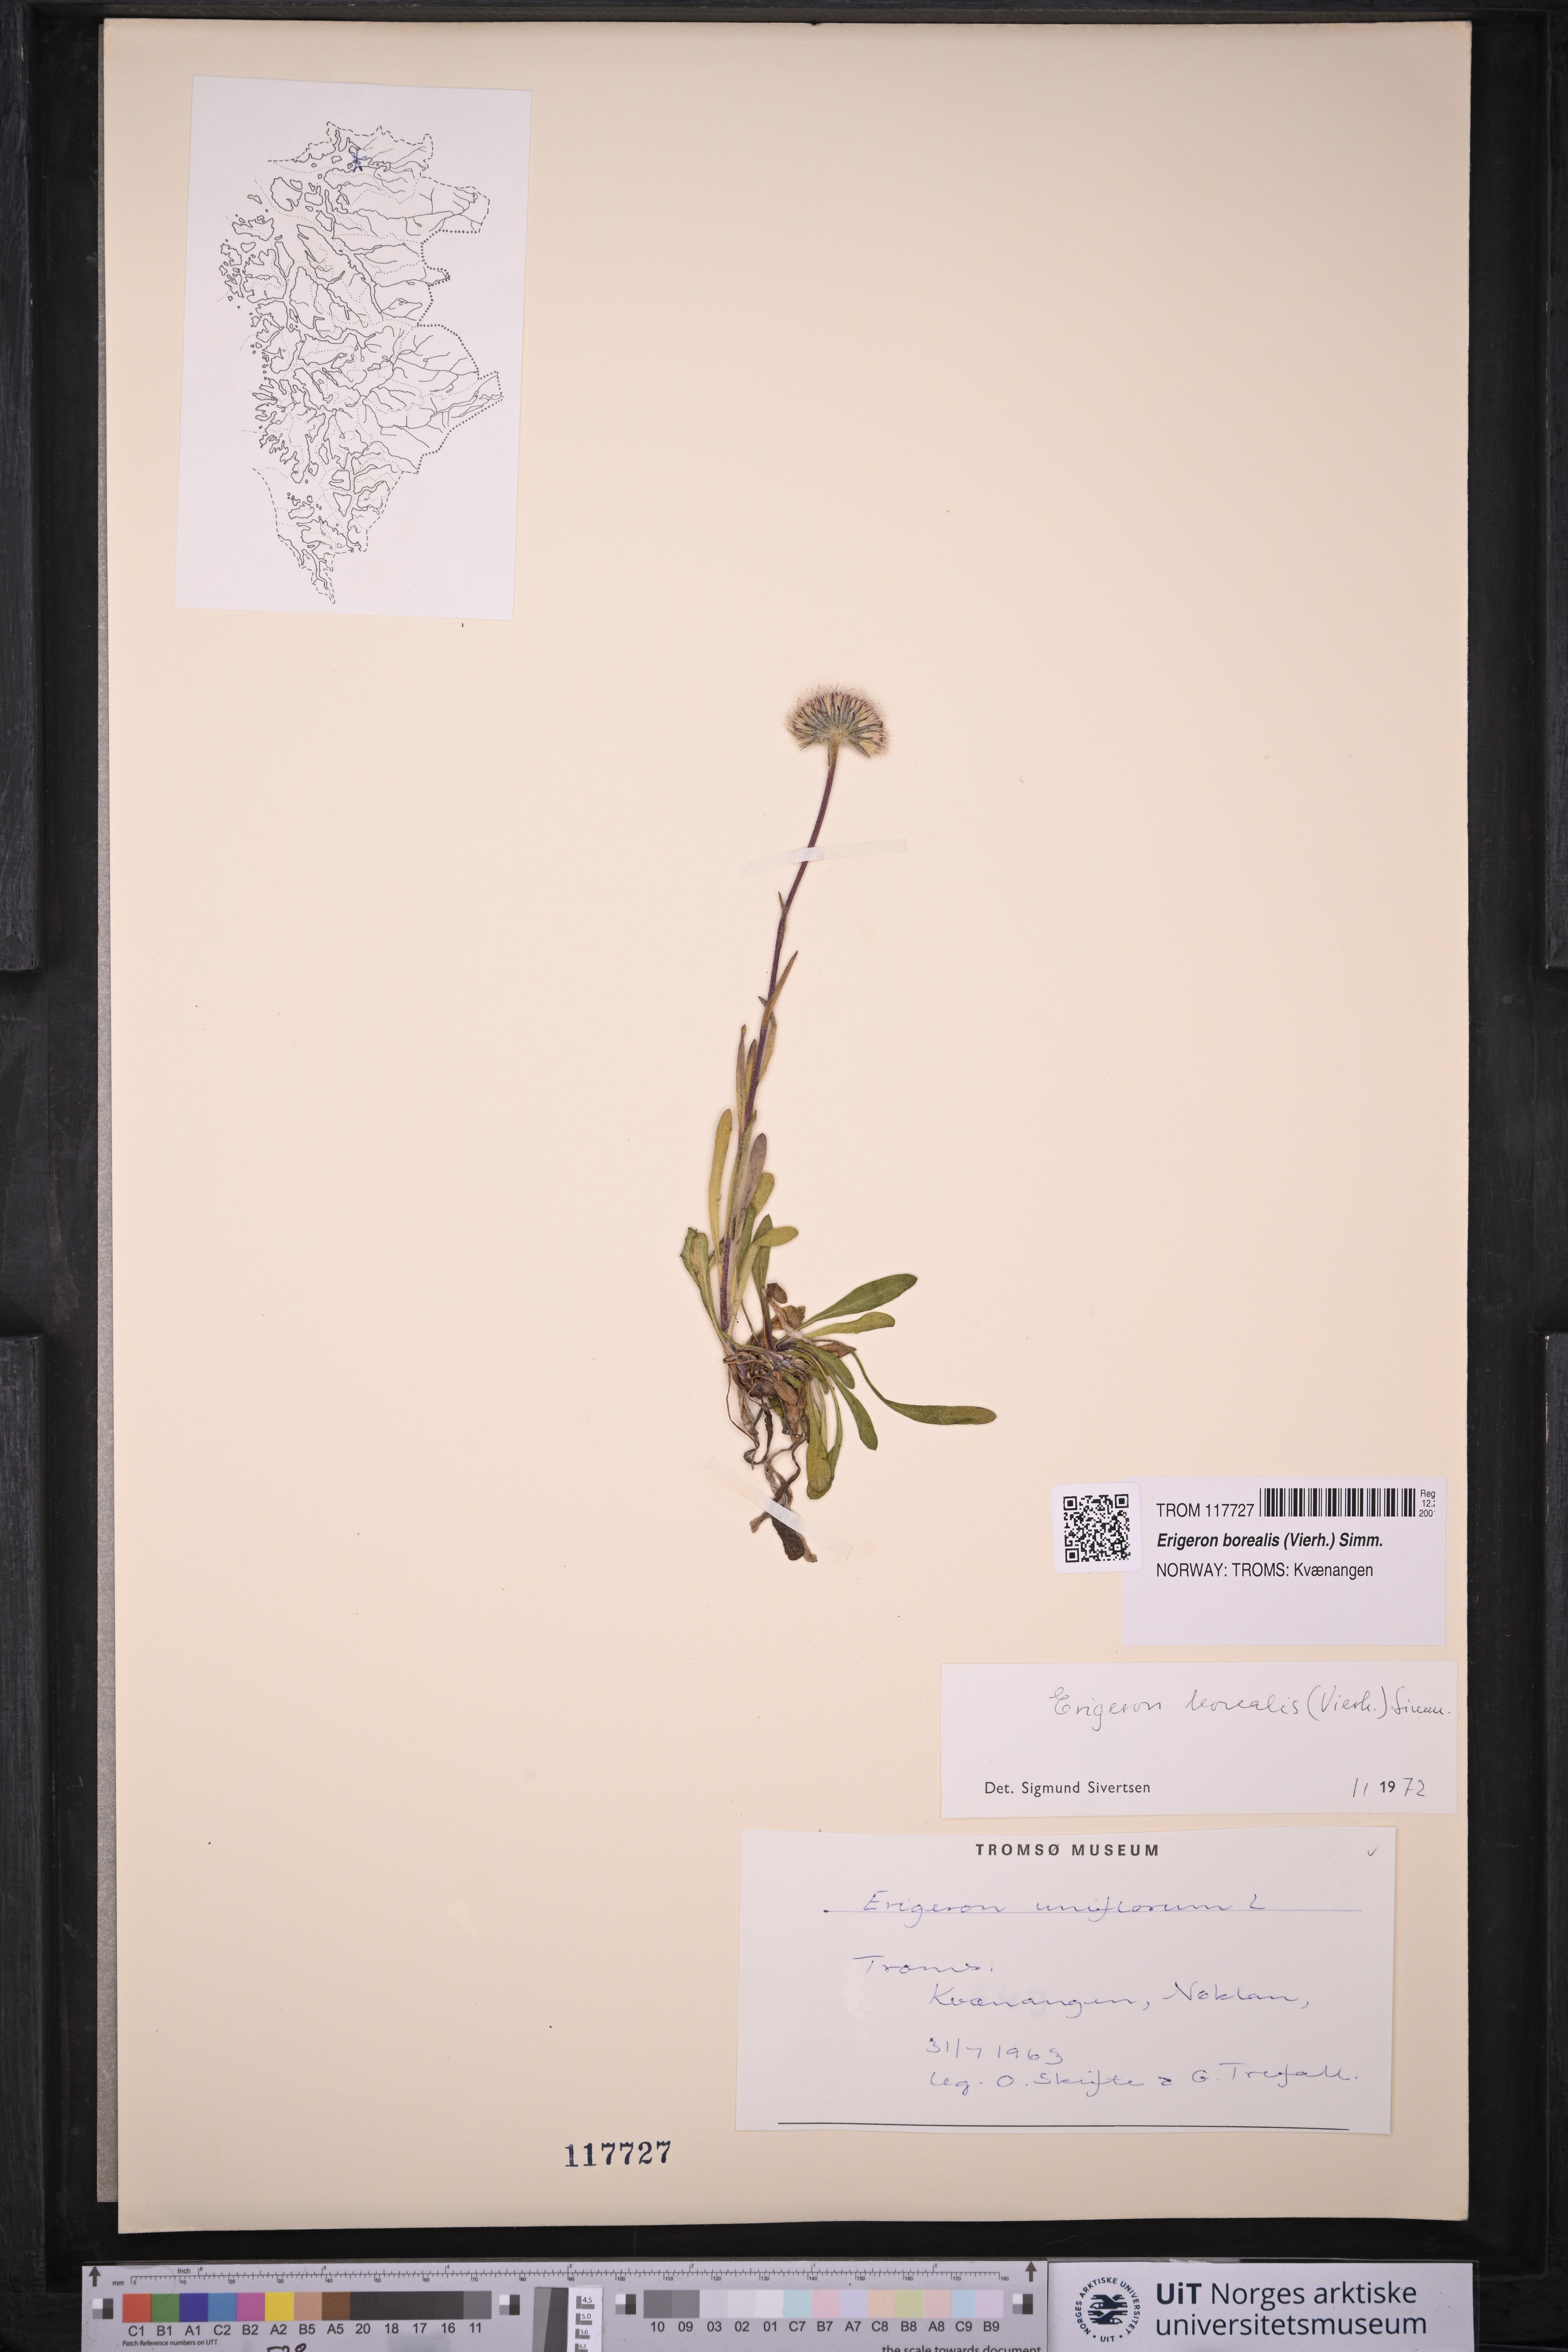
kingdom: Plantae
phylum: Tracheophyta
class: Magnoliopsida
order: Asterales
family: Asteraceae
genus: Erigeron
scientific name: Erigeron borealis
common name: Alpine fleabane
